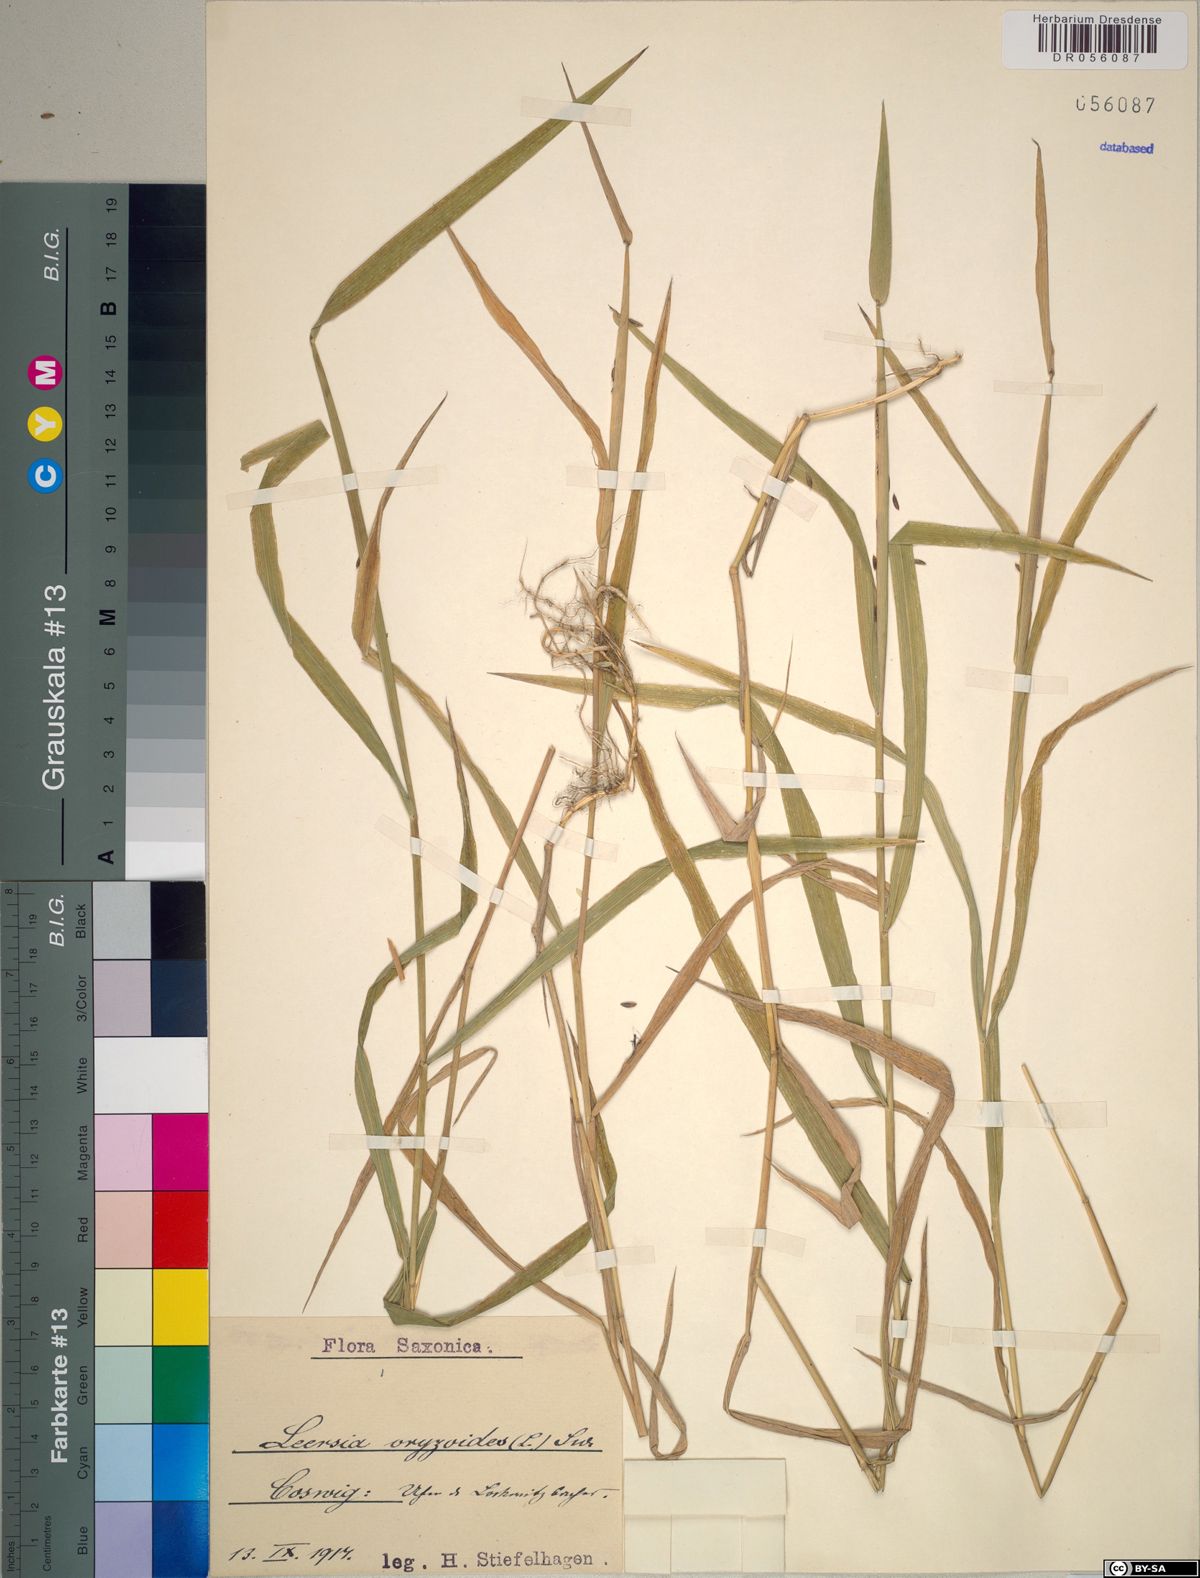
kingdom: Plantae
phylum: Tracheophyta
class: Liliopsida
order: Poales
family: Poaceae
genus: Leersia
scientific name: Leersia oryzoides
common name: Cut-grass
